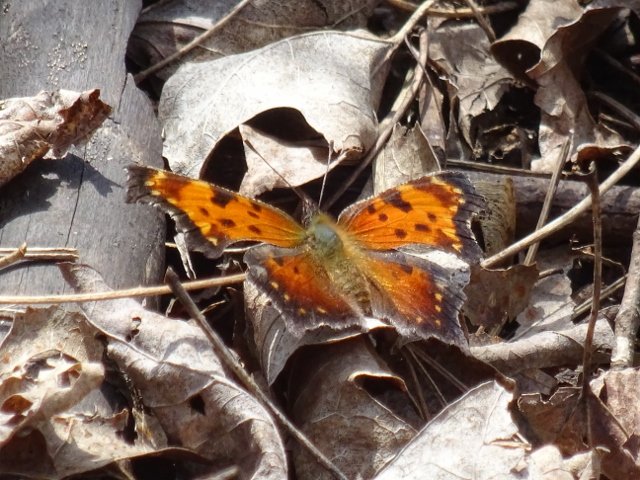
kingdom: Animalia
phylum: Arthropoda
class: Insecta
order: Lepidoptera
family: Nymphalidae
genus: Polygonia
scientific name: Polygonia progne
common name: Gray Comma
